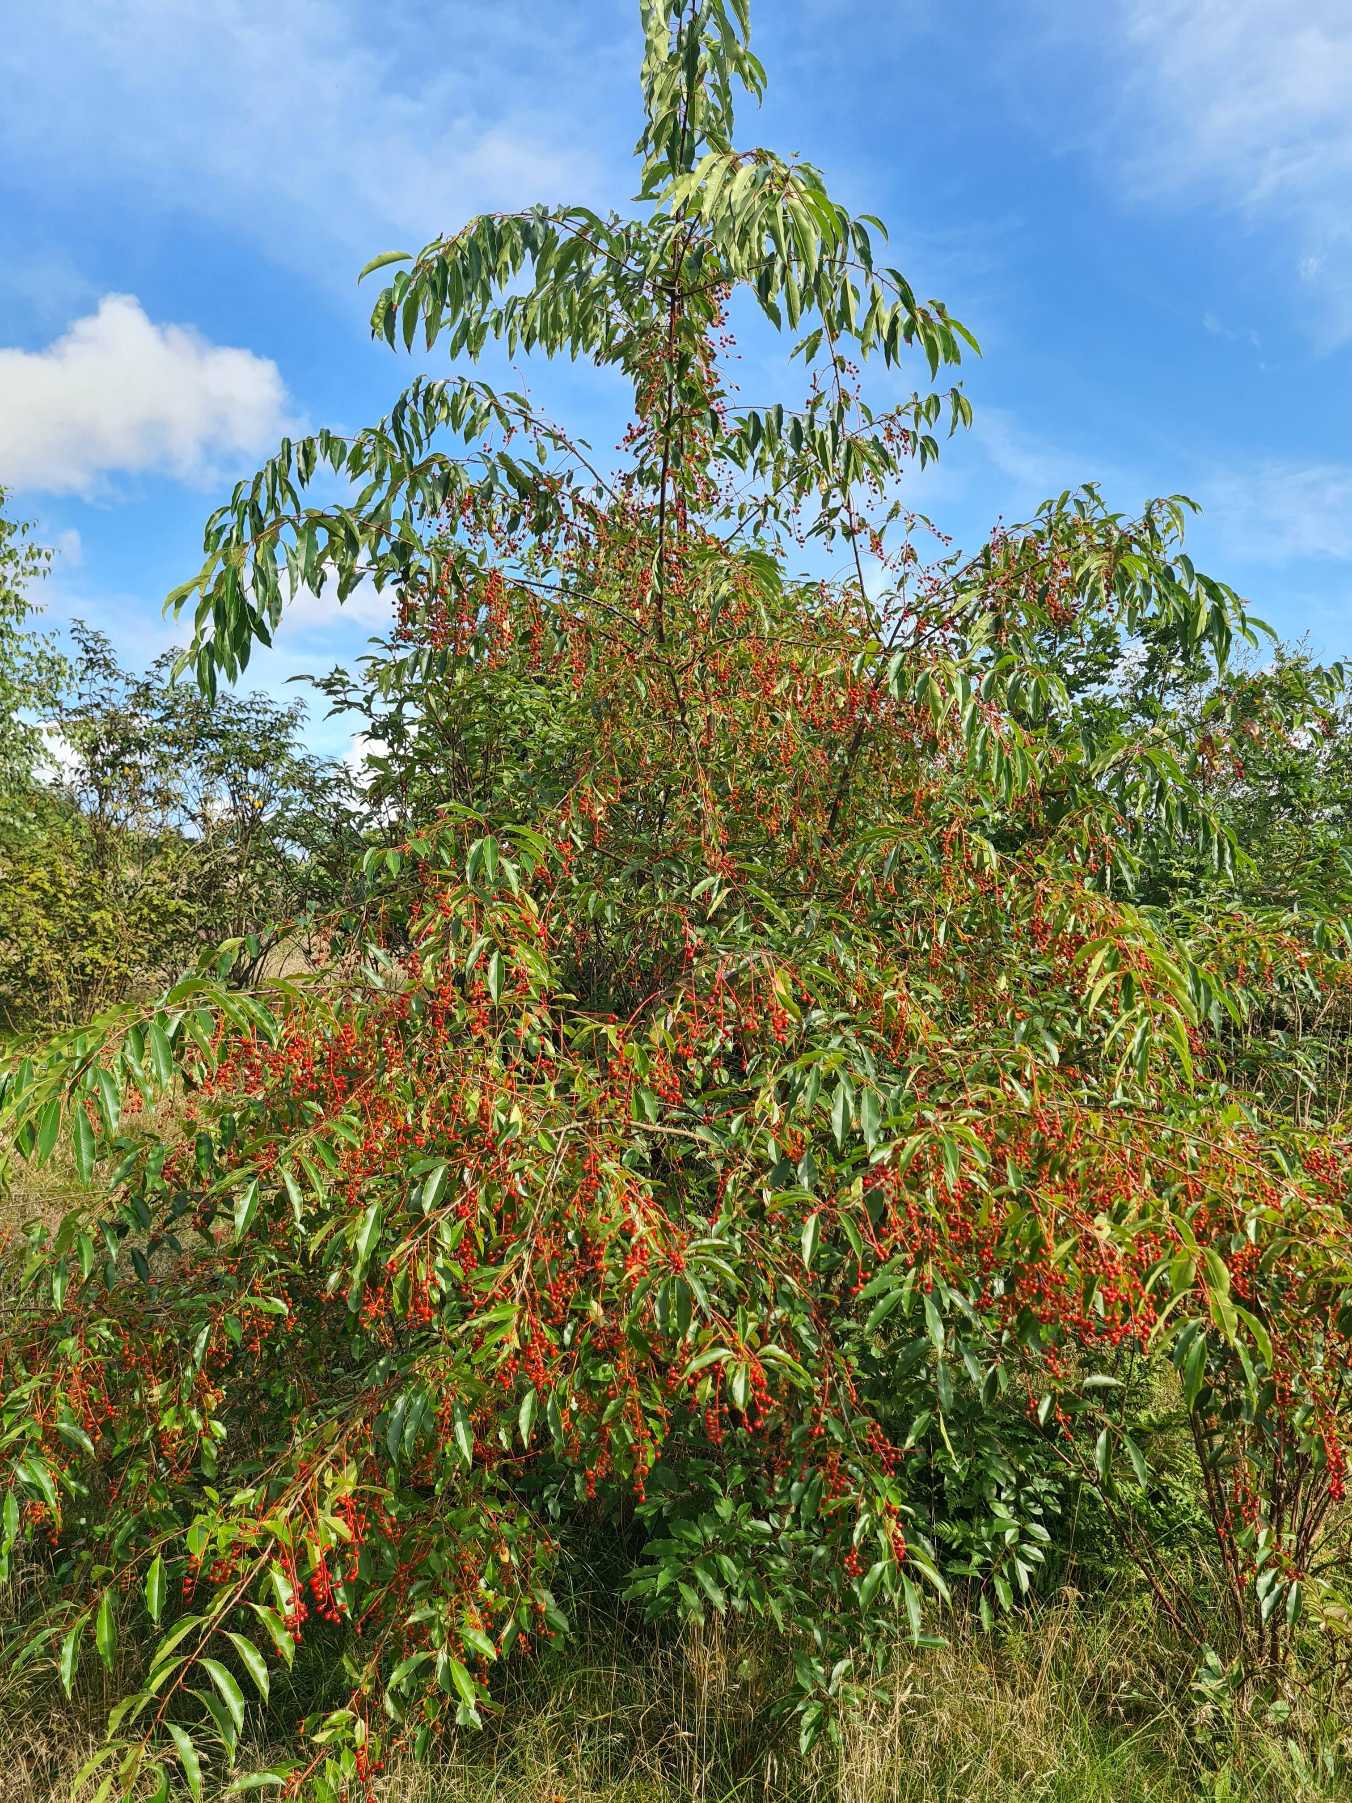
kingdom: Plantae
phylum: Tracheophyta
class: Magnoliopsida
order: Rosales
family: Rosaceae
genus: Prunus
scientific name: Prunus serotina
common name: Glansbladet hæg
